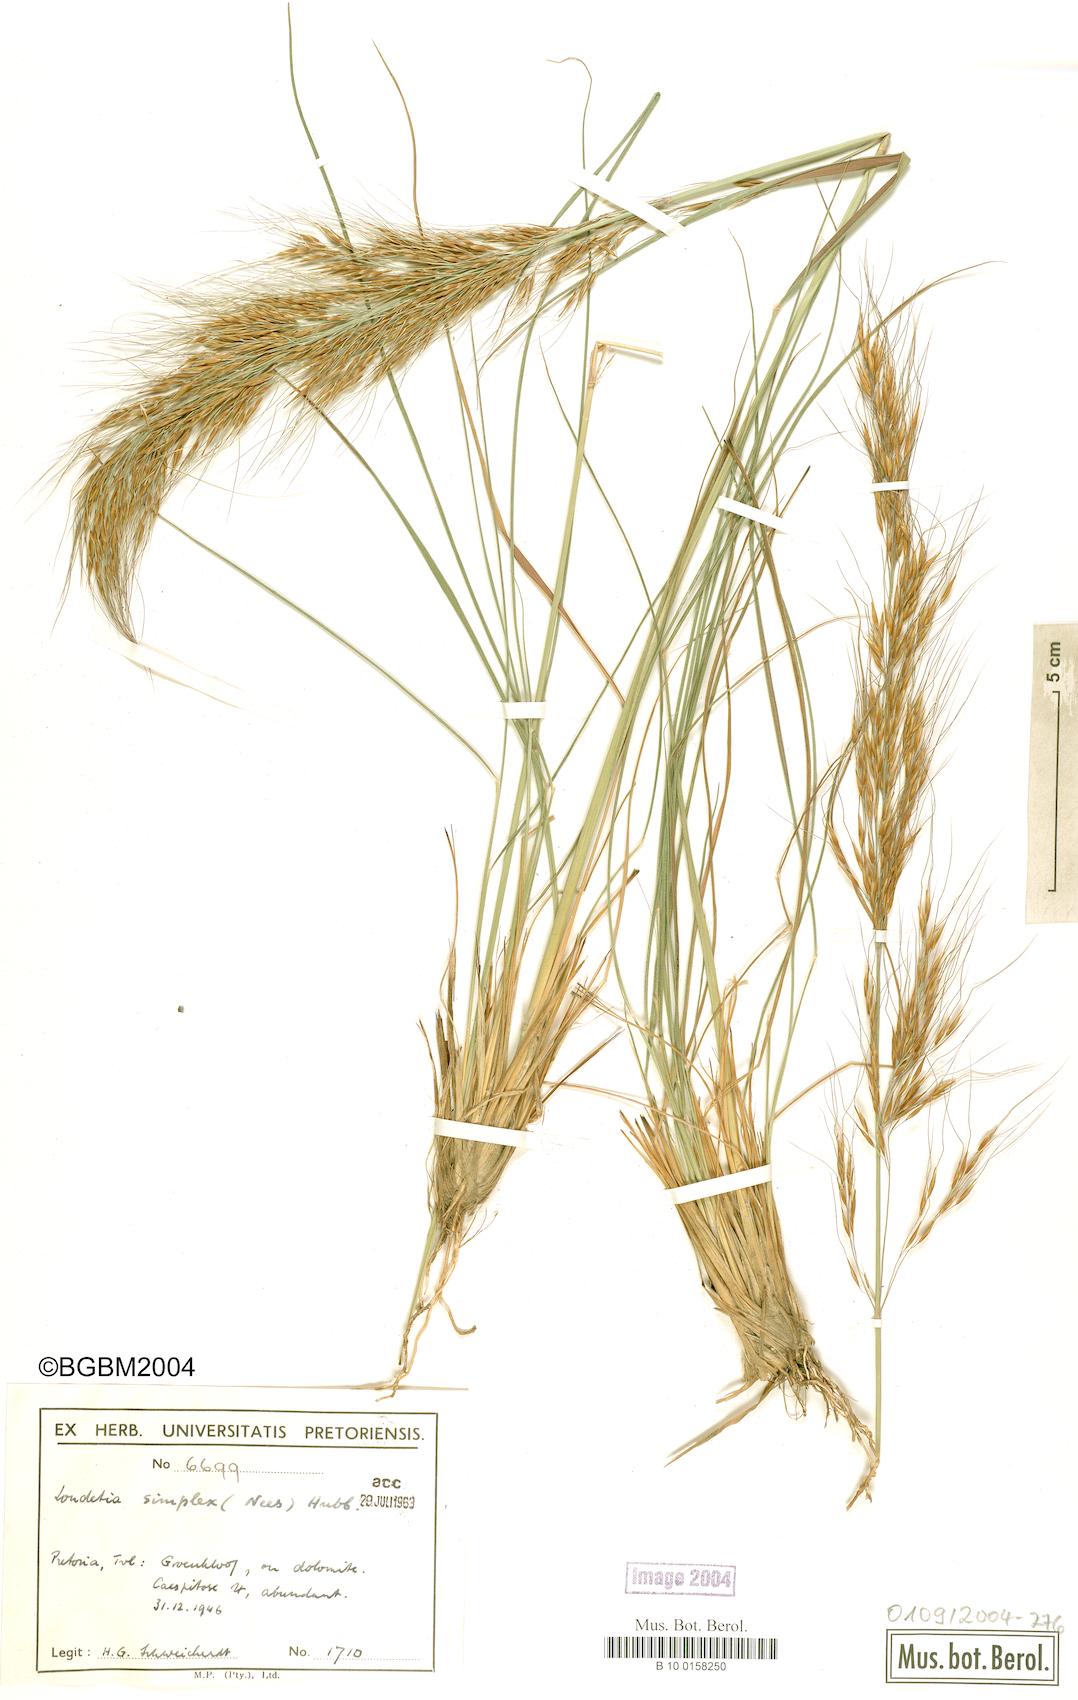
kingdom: Plantae
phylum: Tracheophyta
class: Liliopsida
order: Poales
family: Poaceae
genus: Loudetia
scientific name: Loudetia simplex
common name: Common russet grass
